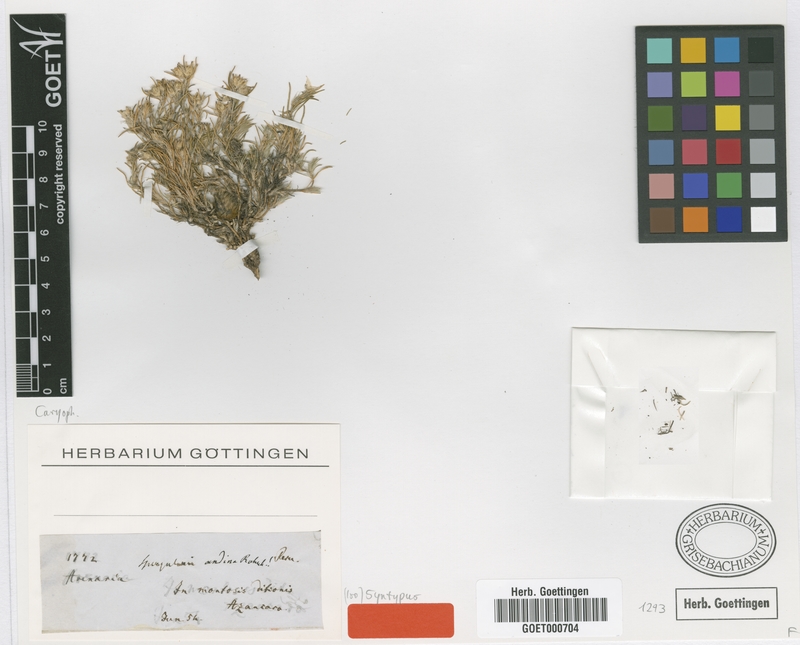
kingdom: Plantae
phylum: Tracheophyta
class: Magnoliopsida
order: Caryophyllales
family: Caryophyllaceae
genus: Spergularia
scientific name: Spergularia andina
